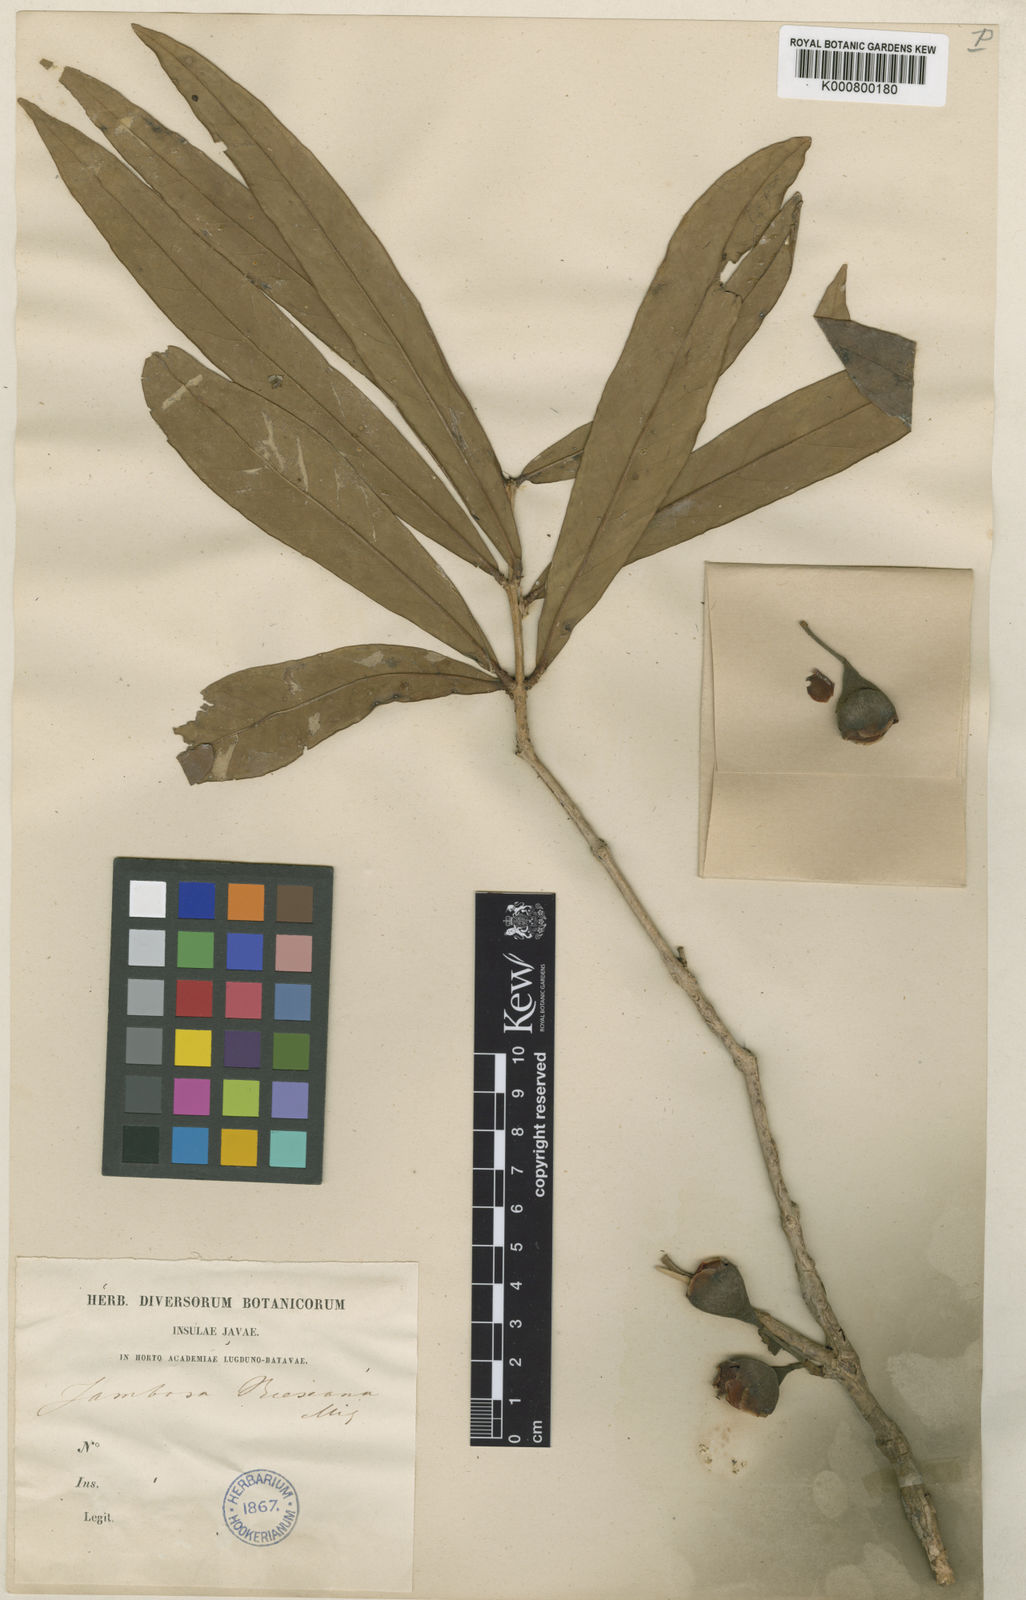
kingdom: Plantae
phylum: Tracheophyta
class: Magnoliopsida
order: Myrtales
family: Myrtaceae
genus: Syzygium
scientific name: Syzygium vrieseanum
